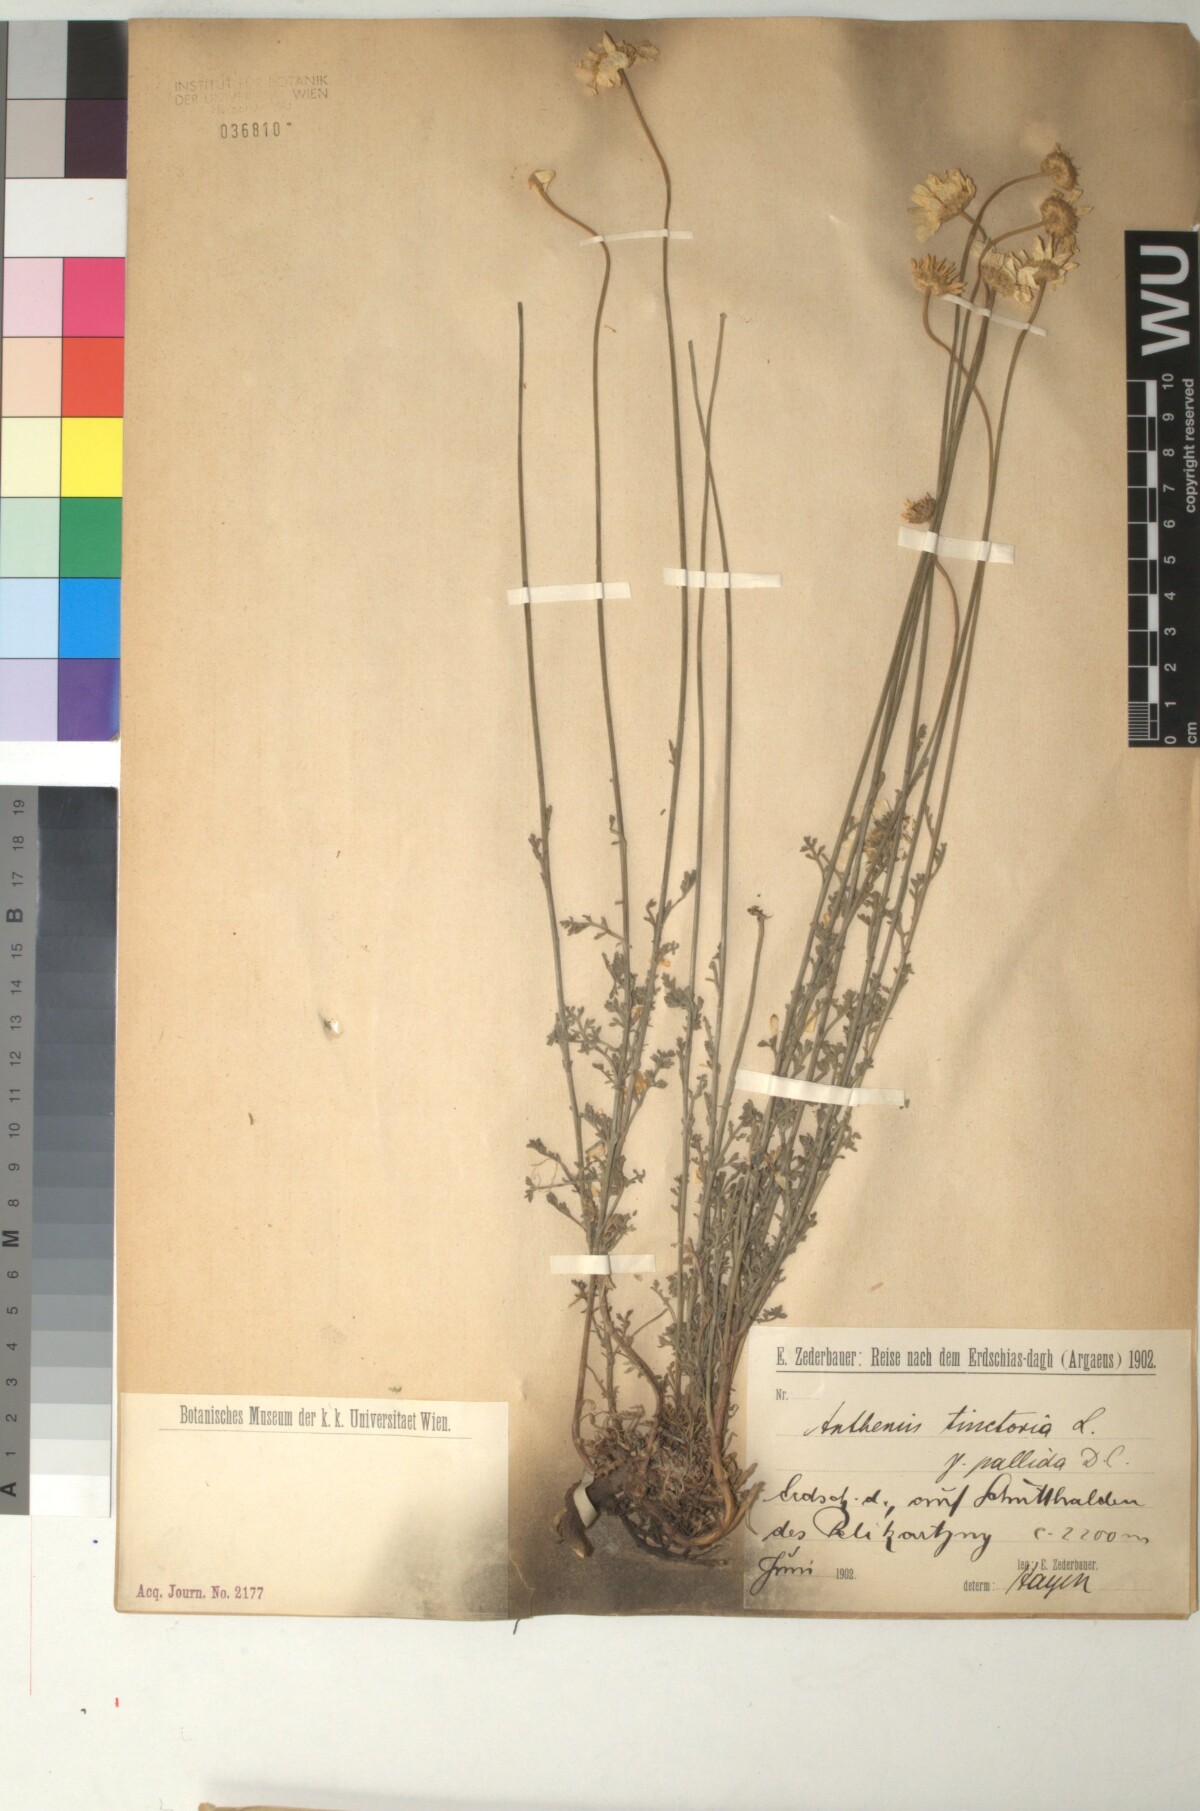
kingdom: Plantae
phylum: Tracheophyta
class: Magnoliopsida
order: Asterales
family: Asteraceae
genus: Cota
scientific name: Cota tinctoria
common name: Golden chamomile
